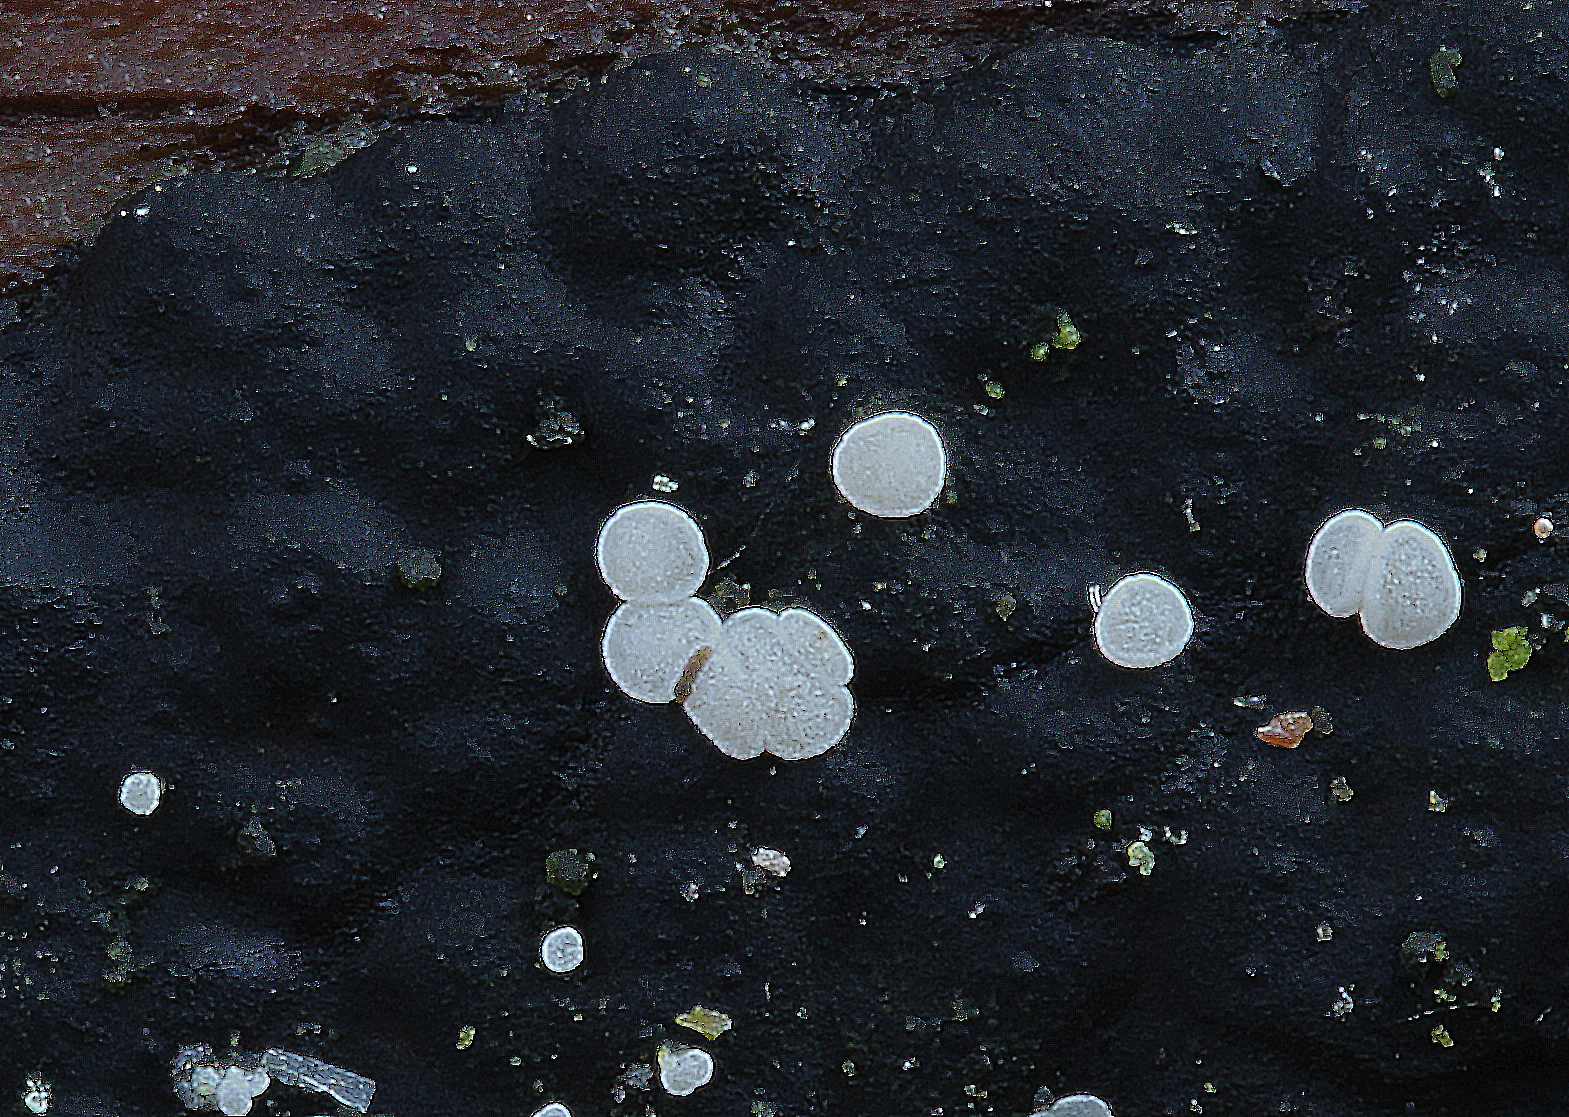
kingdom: Fungi
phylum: Ascomycota
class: Leotiomycetes
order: Helotiales
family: Hyaloscyphaceae
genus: Polydesmia
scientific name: Polydesmia pruinosa
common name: dunskive
